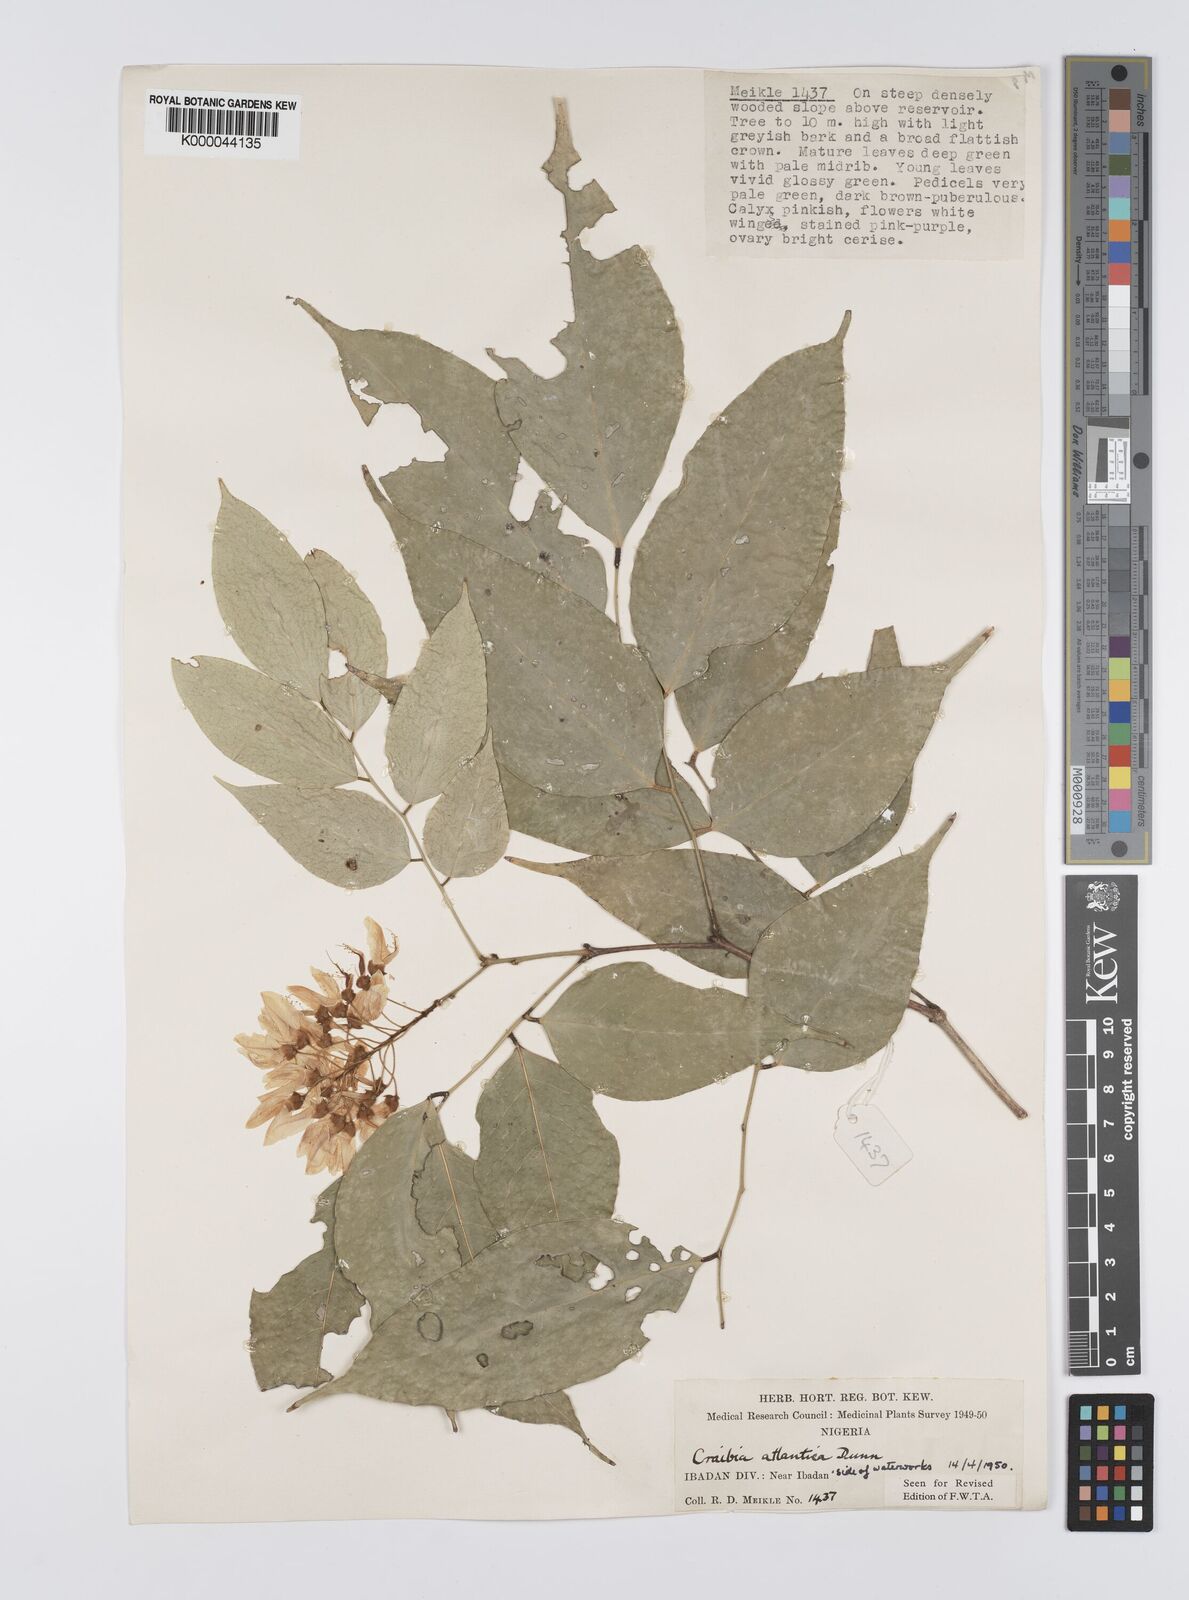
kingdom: Plantae
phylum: Tracheophyta
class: Magnoliopsida
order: Fabales
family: Fabaceae
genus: Craibia
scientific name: Craibia atlantica
